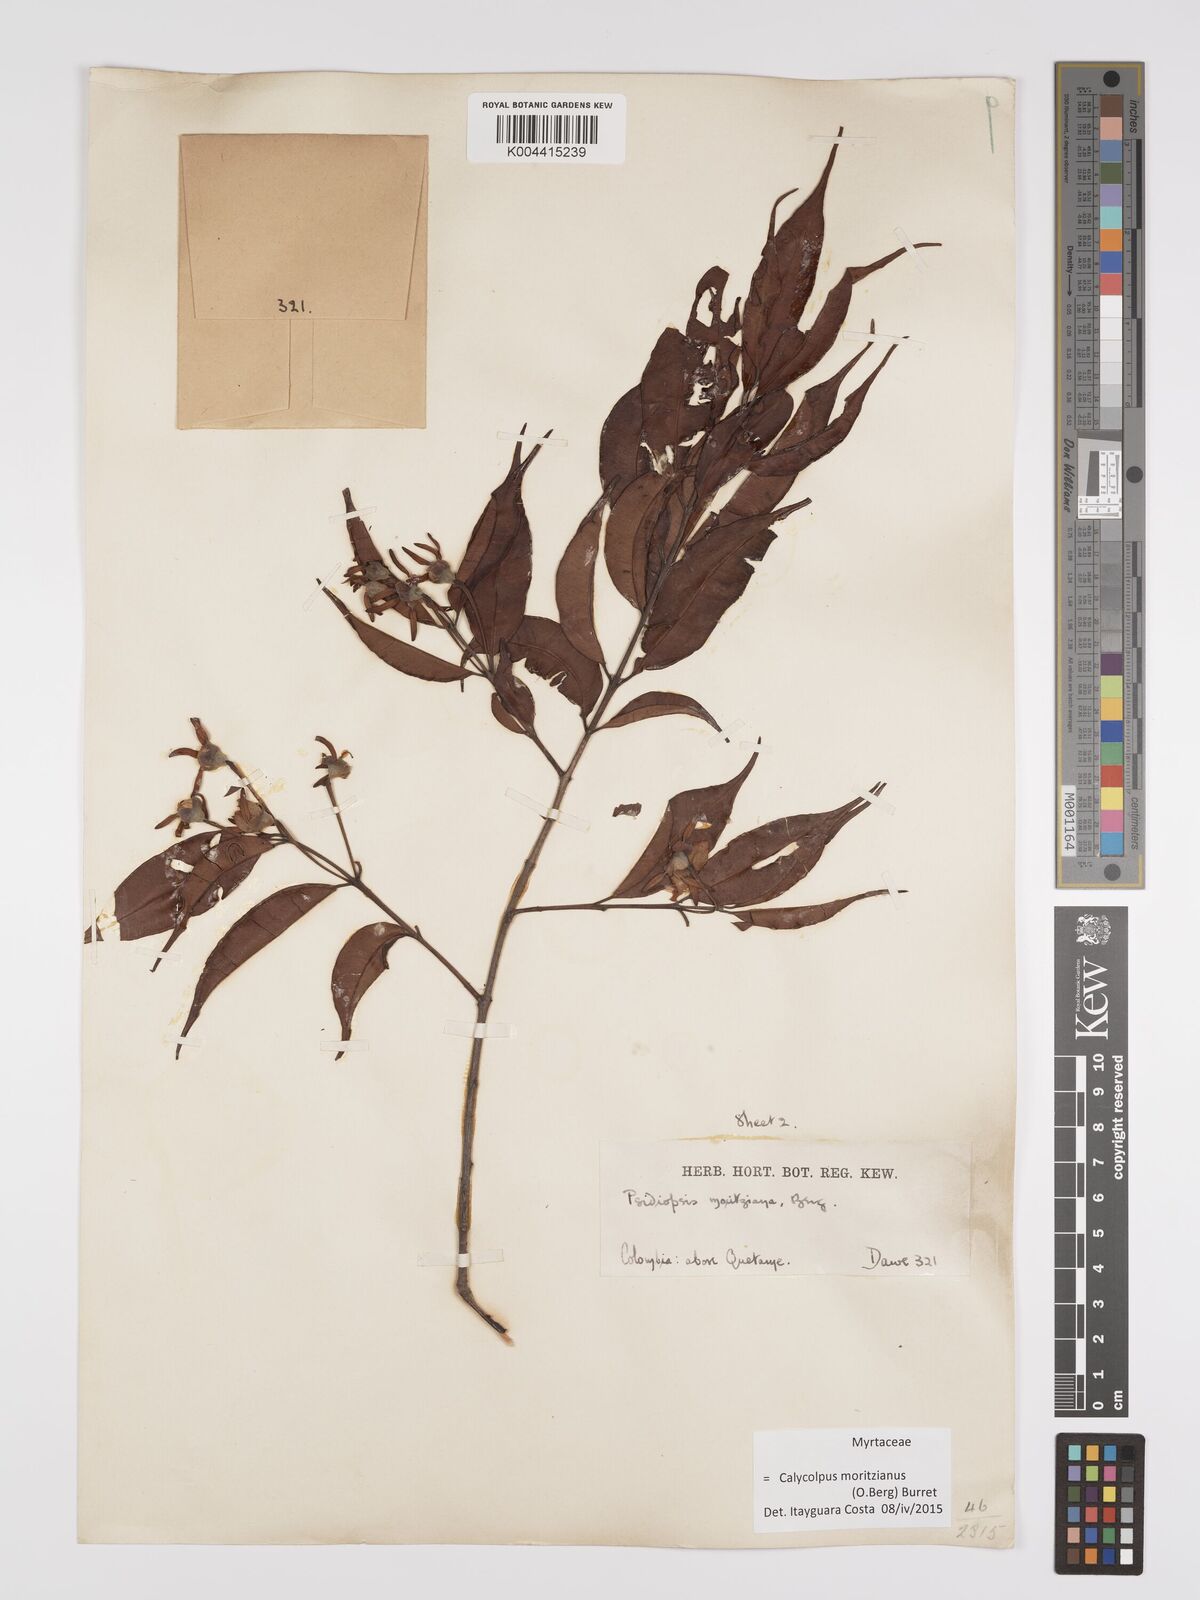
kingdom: Plantae
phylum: Tracheophyta
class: Magnoliopsida
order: Myrtales
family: Myrtaceae
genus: Calycolpus
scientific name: Calycolpus moritzianus
